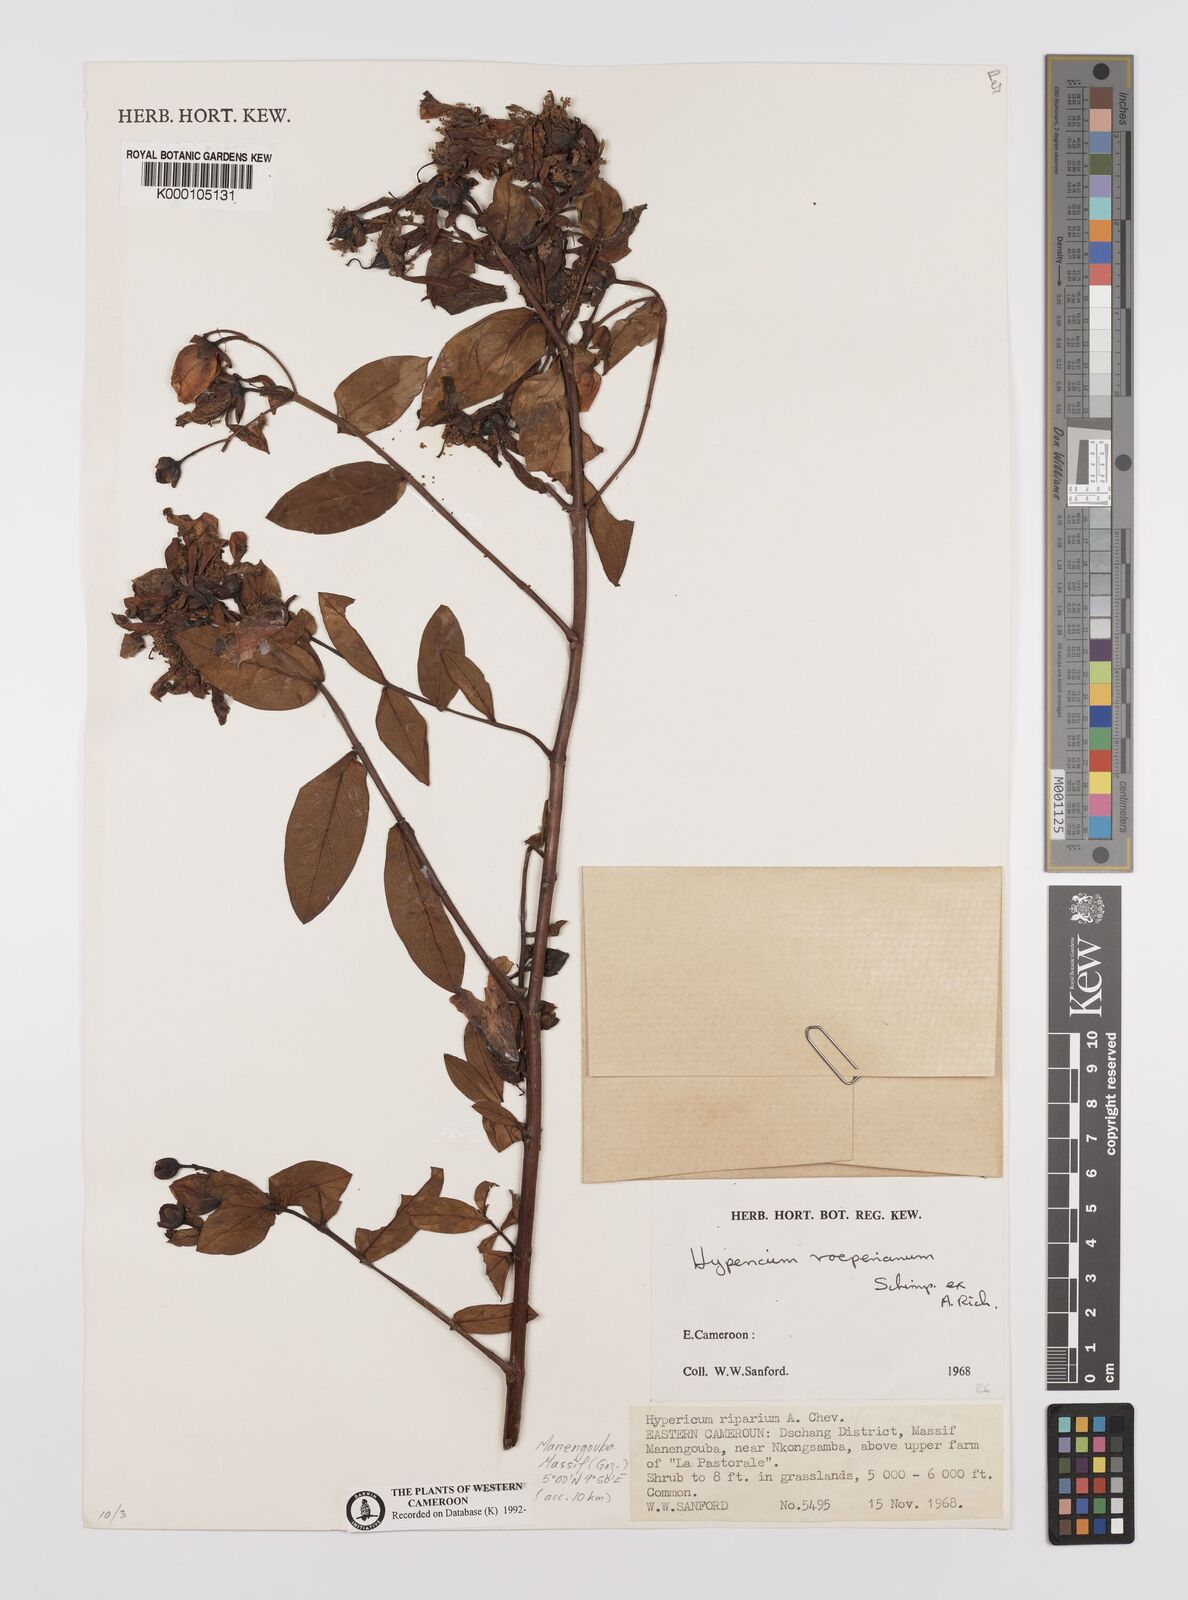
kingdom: Plantae
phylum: Tracheophyta
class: Magnoliopsida
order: Malpighiales
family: Hypericaceae
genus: Hypericum
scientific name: Hypericum roeperianum
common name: Large-leaved curry-bush
